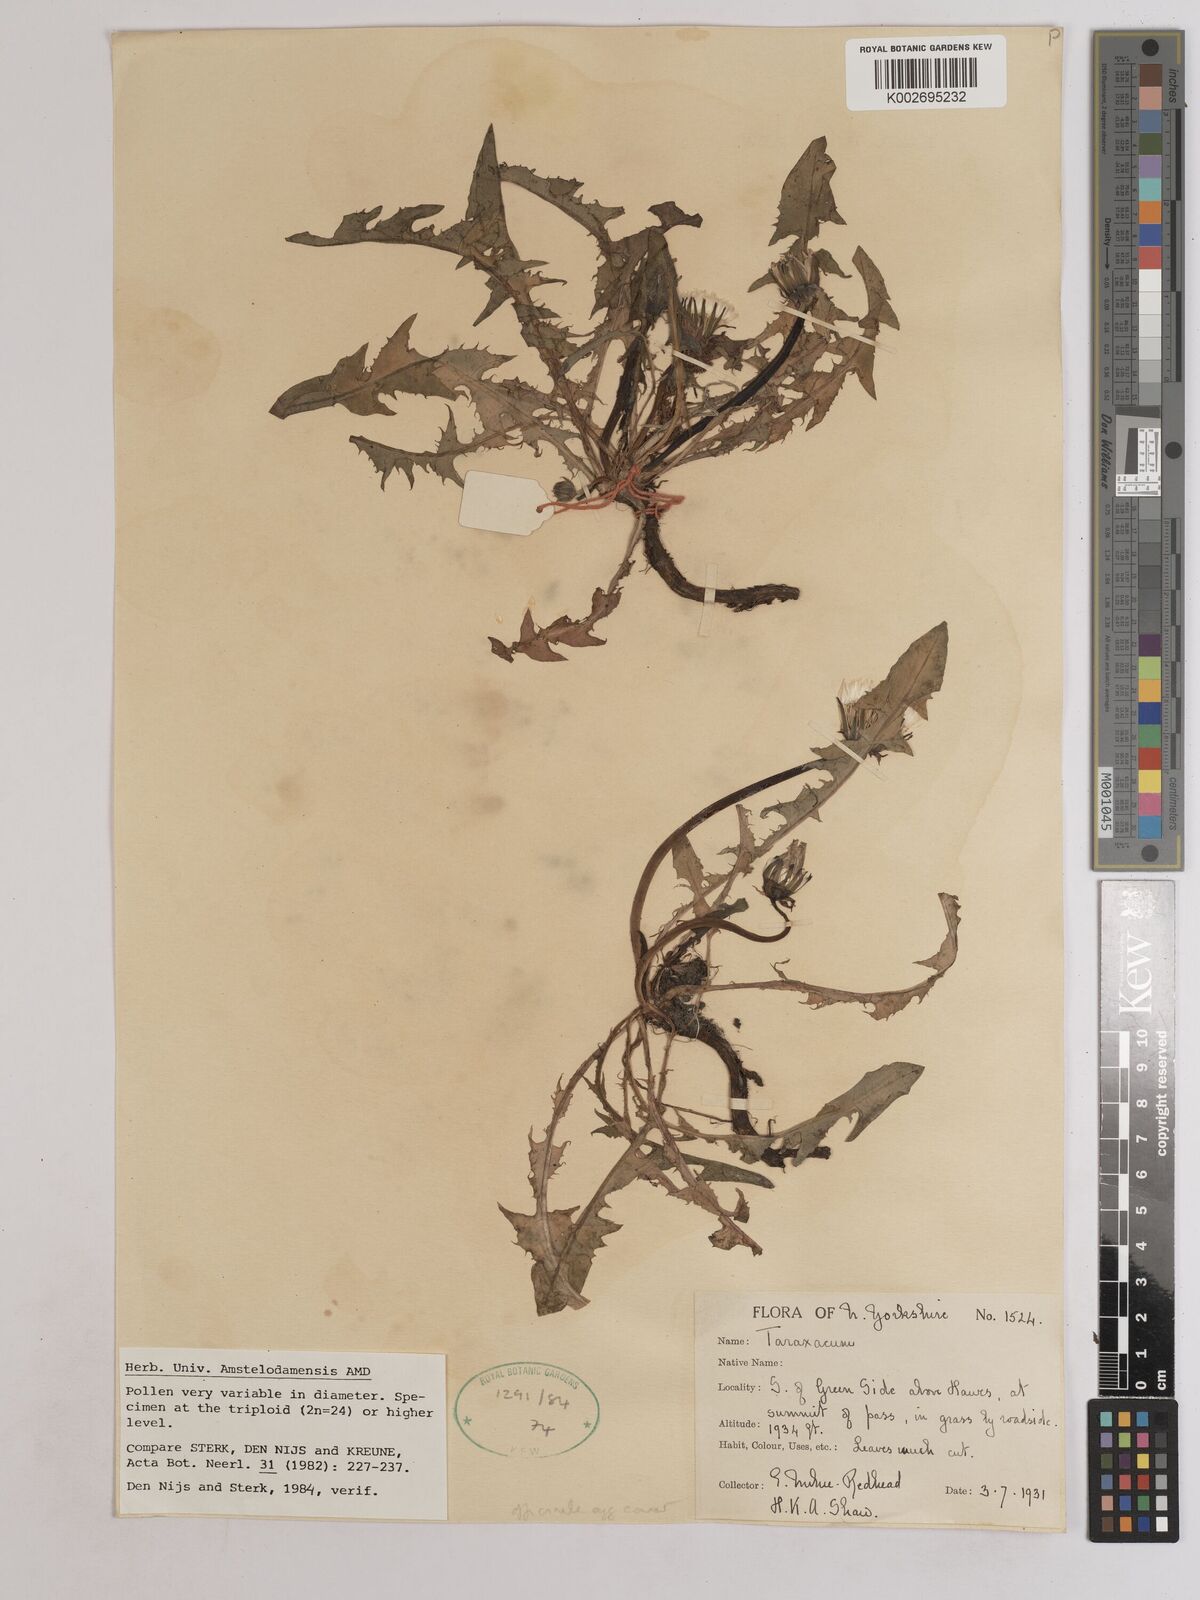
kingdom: Plantae
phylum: Tracheophyta
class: Magnoliopsida
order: Asterales
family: Asteraceae
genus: Taraxacum
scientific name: Taraxacum officinale
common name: Common dandelion
